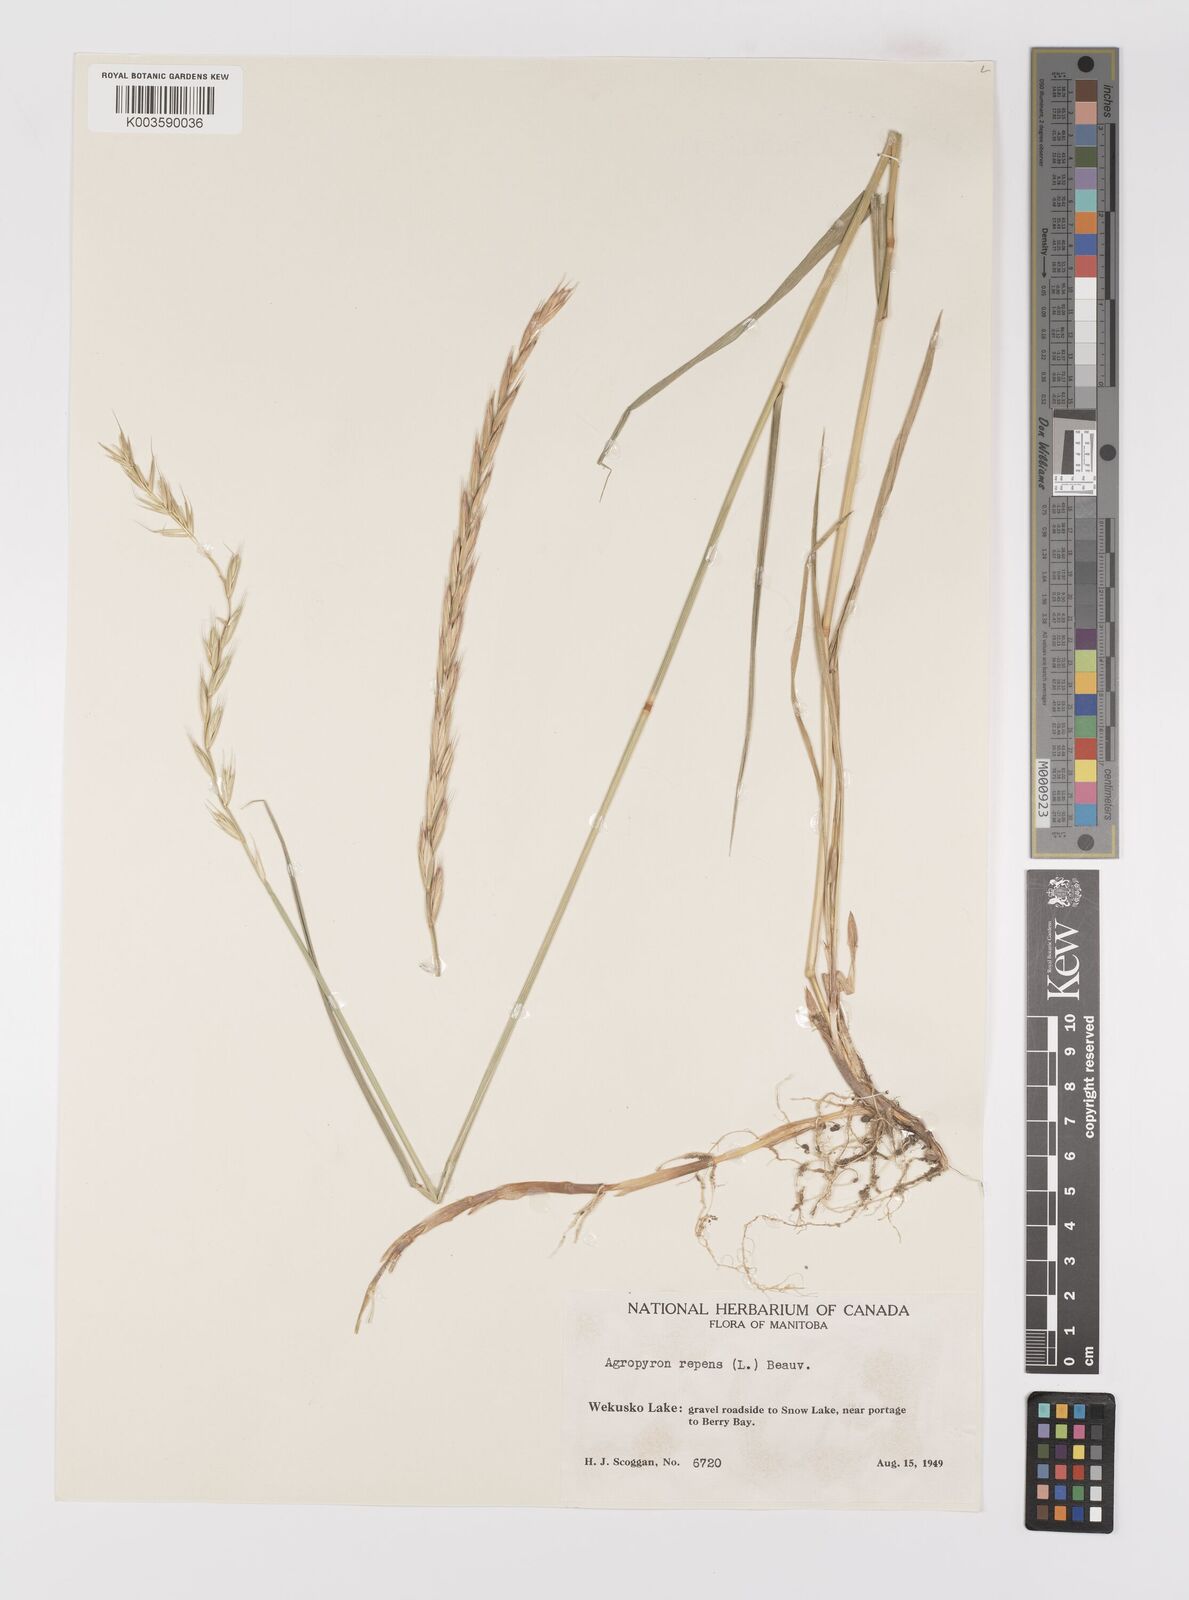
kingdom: Plantae
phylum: Tracheophyta
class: Liliopsida
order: Poales
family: Poaceae
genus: Elymus
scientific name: Elymus repens
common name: Quackgrass
